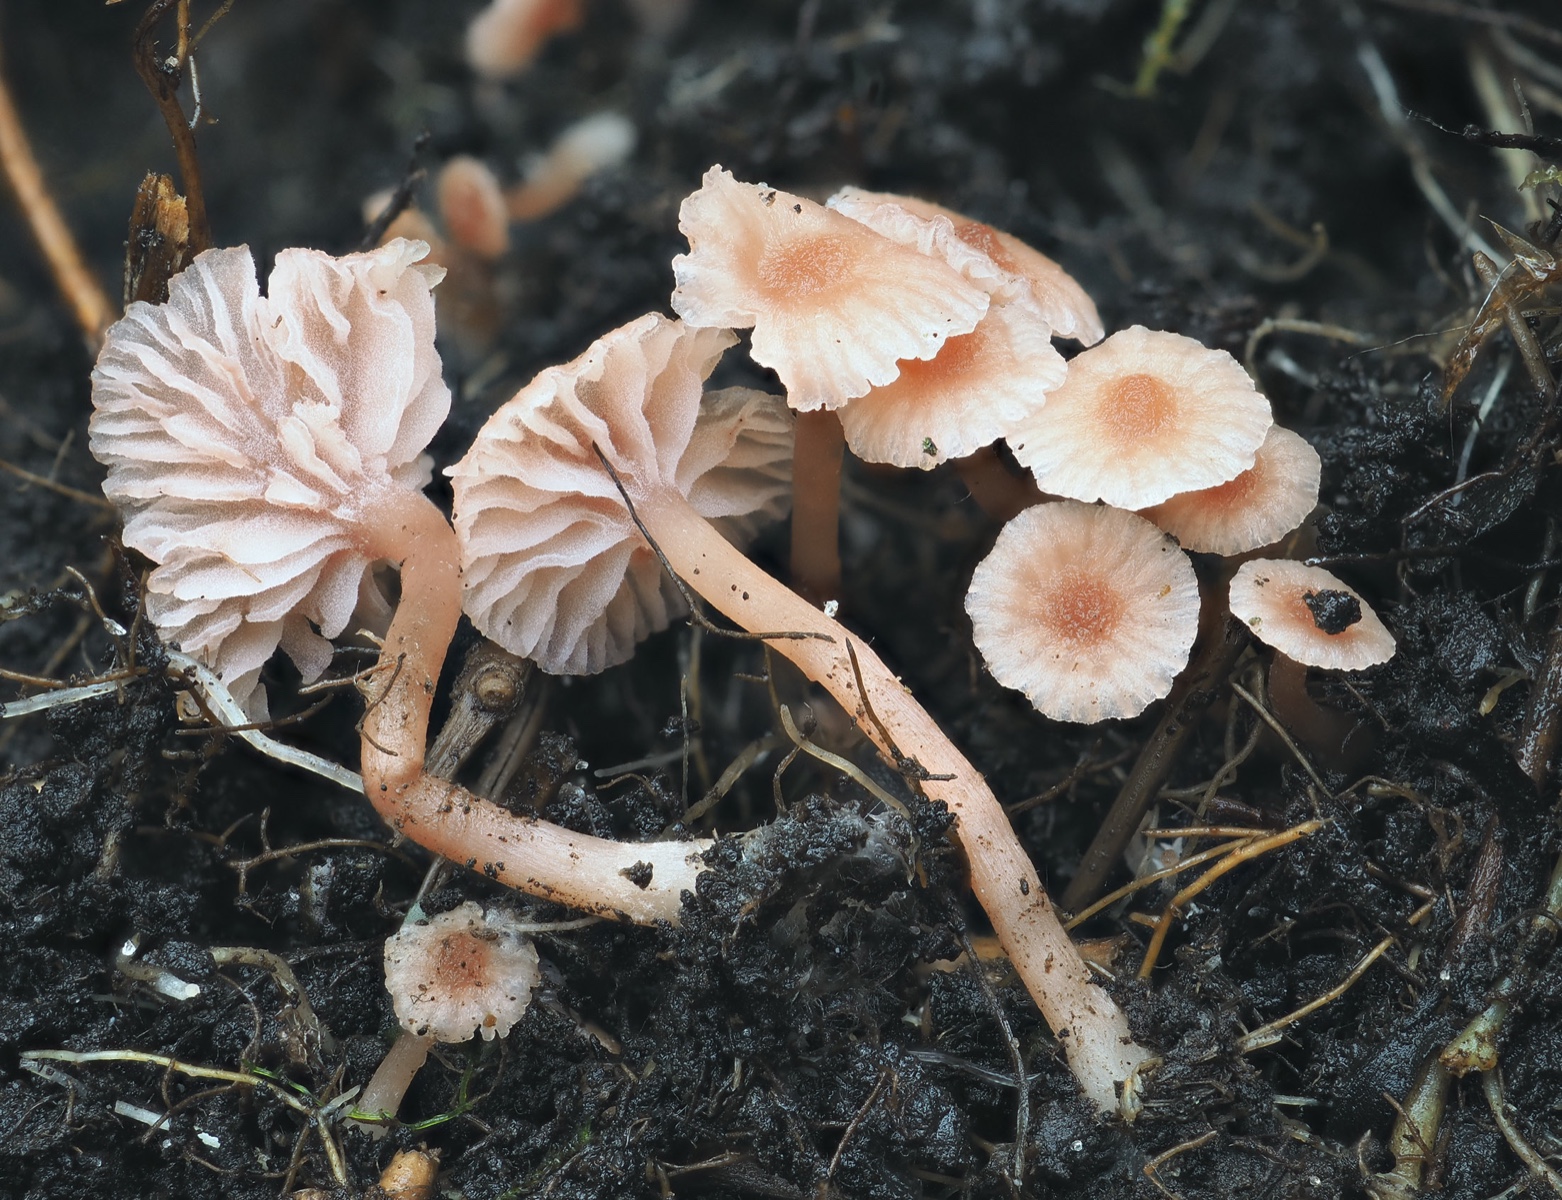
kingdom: Fungi
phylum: Basidiomycota
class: Agaricomycetes
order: Agaricales
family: Hydnangiaceae
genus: Laccaria
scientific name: Laccaria tortilis
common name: krybende ametysthat
